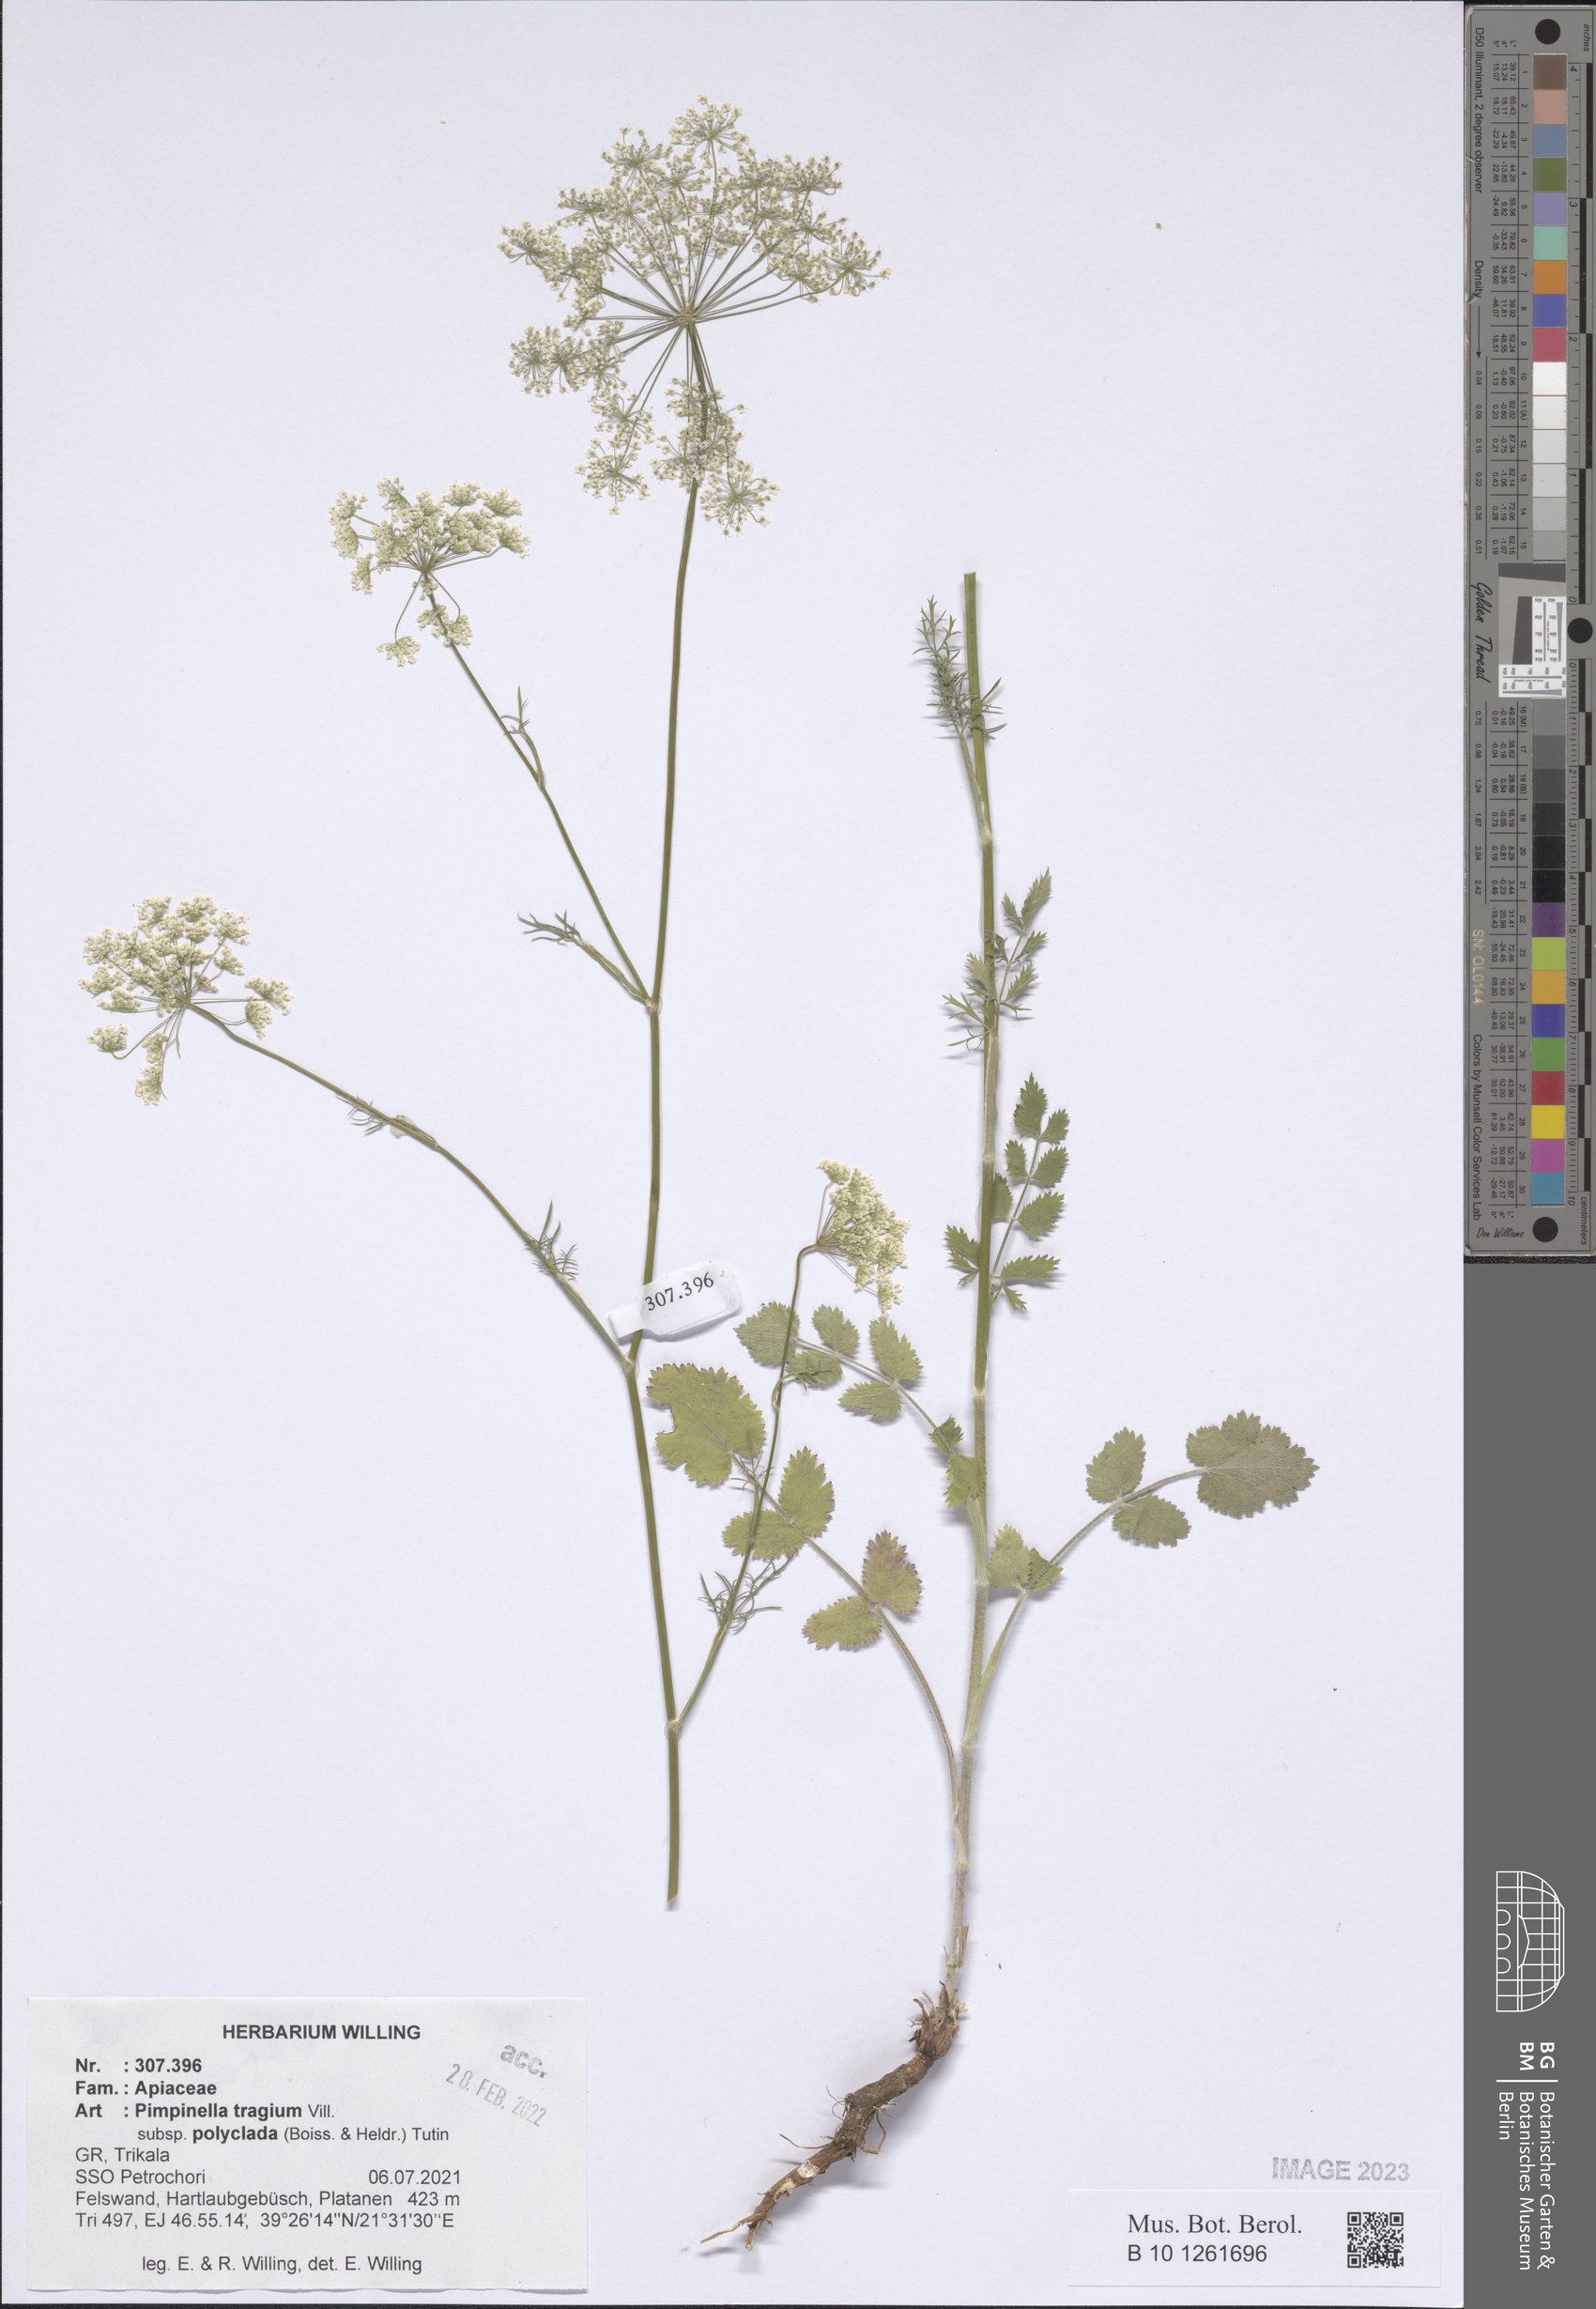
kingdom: Plantae
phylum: Tracheophyta
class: Magnoliopsida
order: Apiales
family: Apiaceae
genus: Pimpinella
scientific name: Pimpinella tragium
